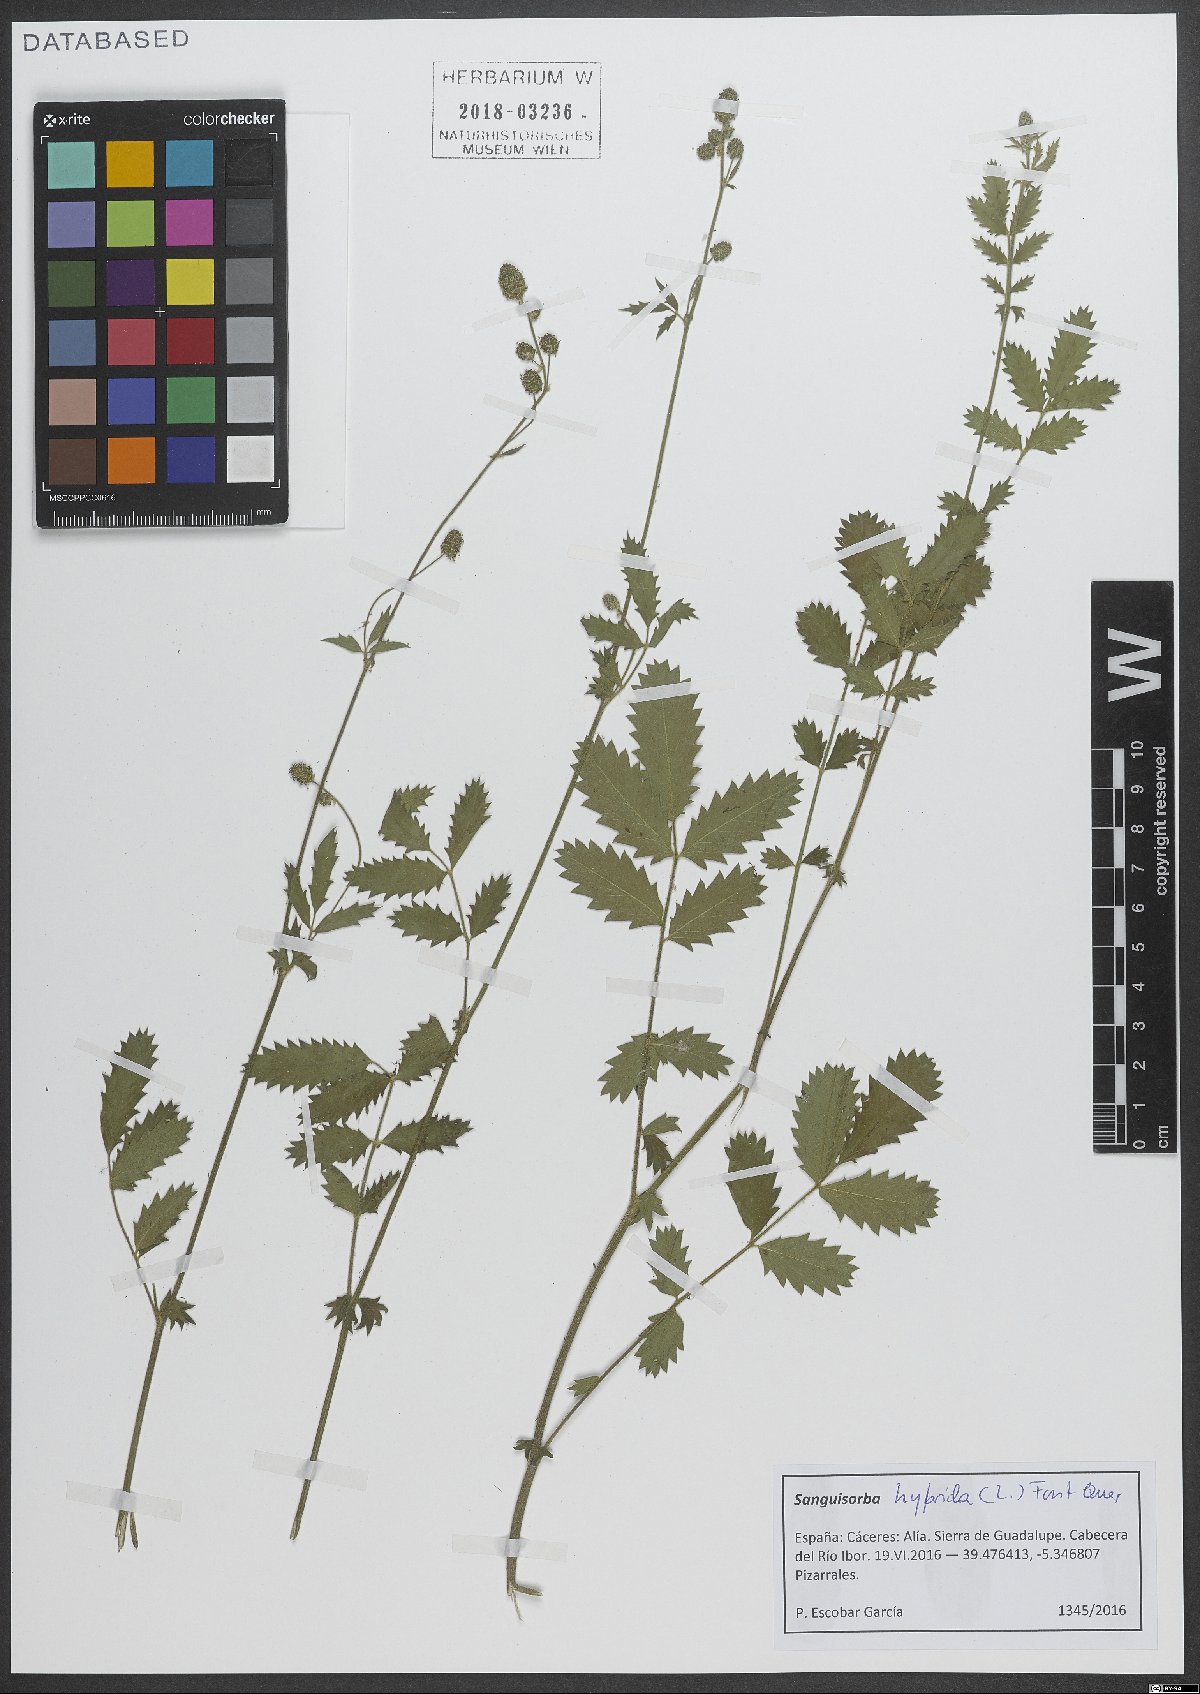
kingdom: Plantae
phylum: Tracheophyta
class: Magnoliopsida
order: Rosales
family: Rosaceae
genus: Poterium
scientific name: Poterium hybridum
